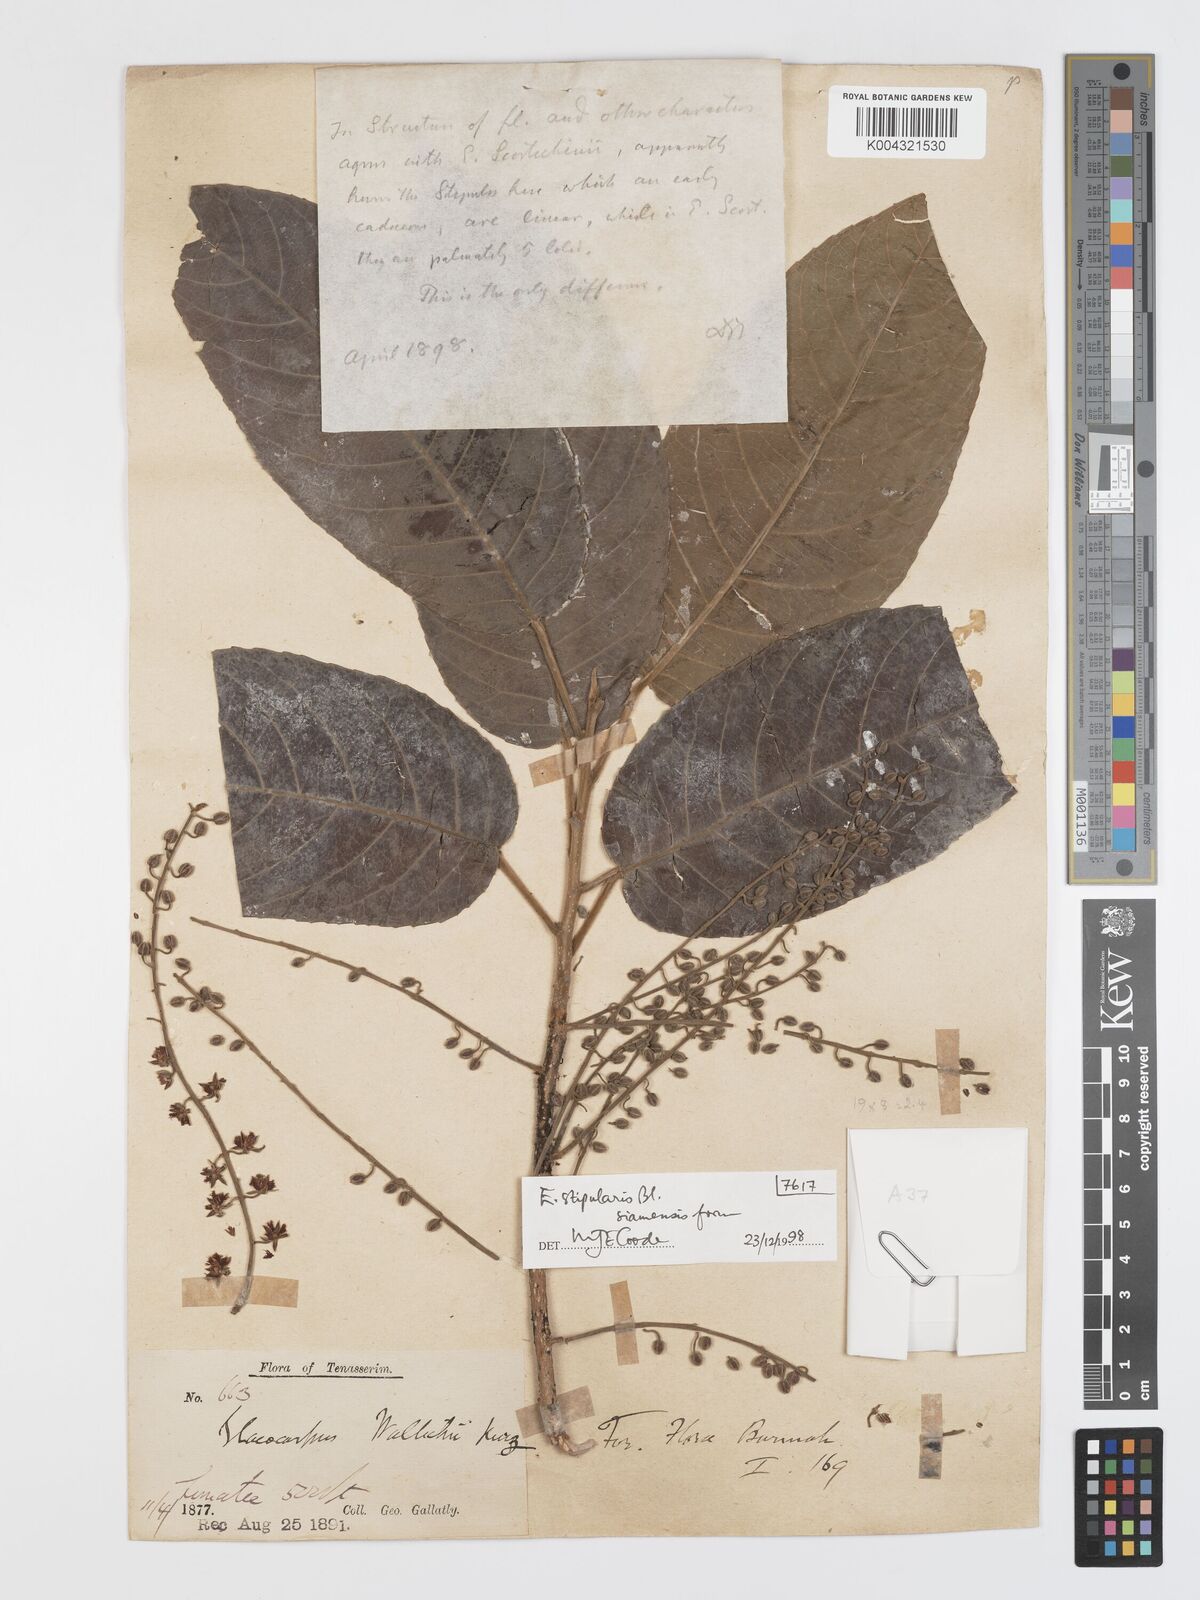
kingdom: Plantae
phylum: Tracheophyta
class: Magnoliopsida
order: Oxalidales
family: Elaeocarpaceae
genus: Elaeocarpus
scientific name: Elaeocarpus stipularis
